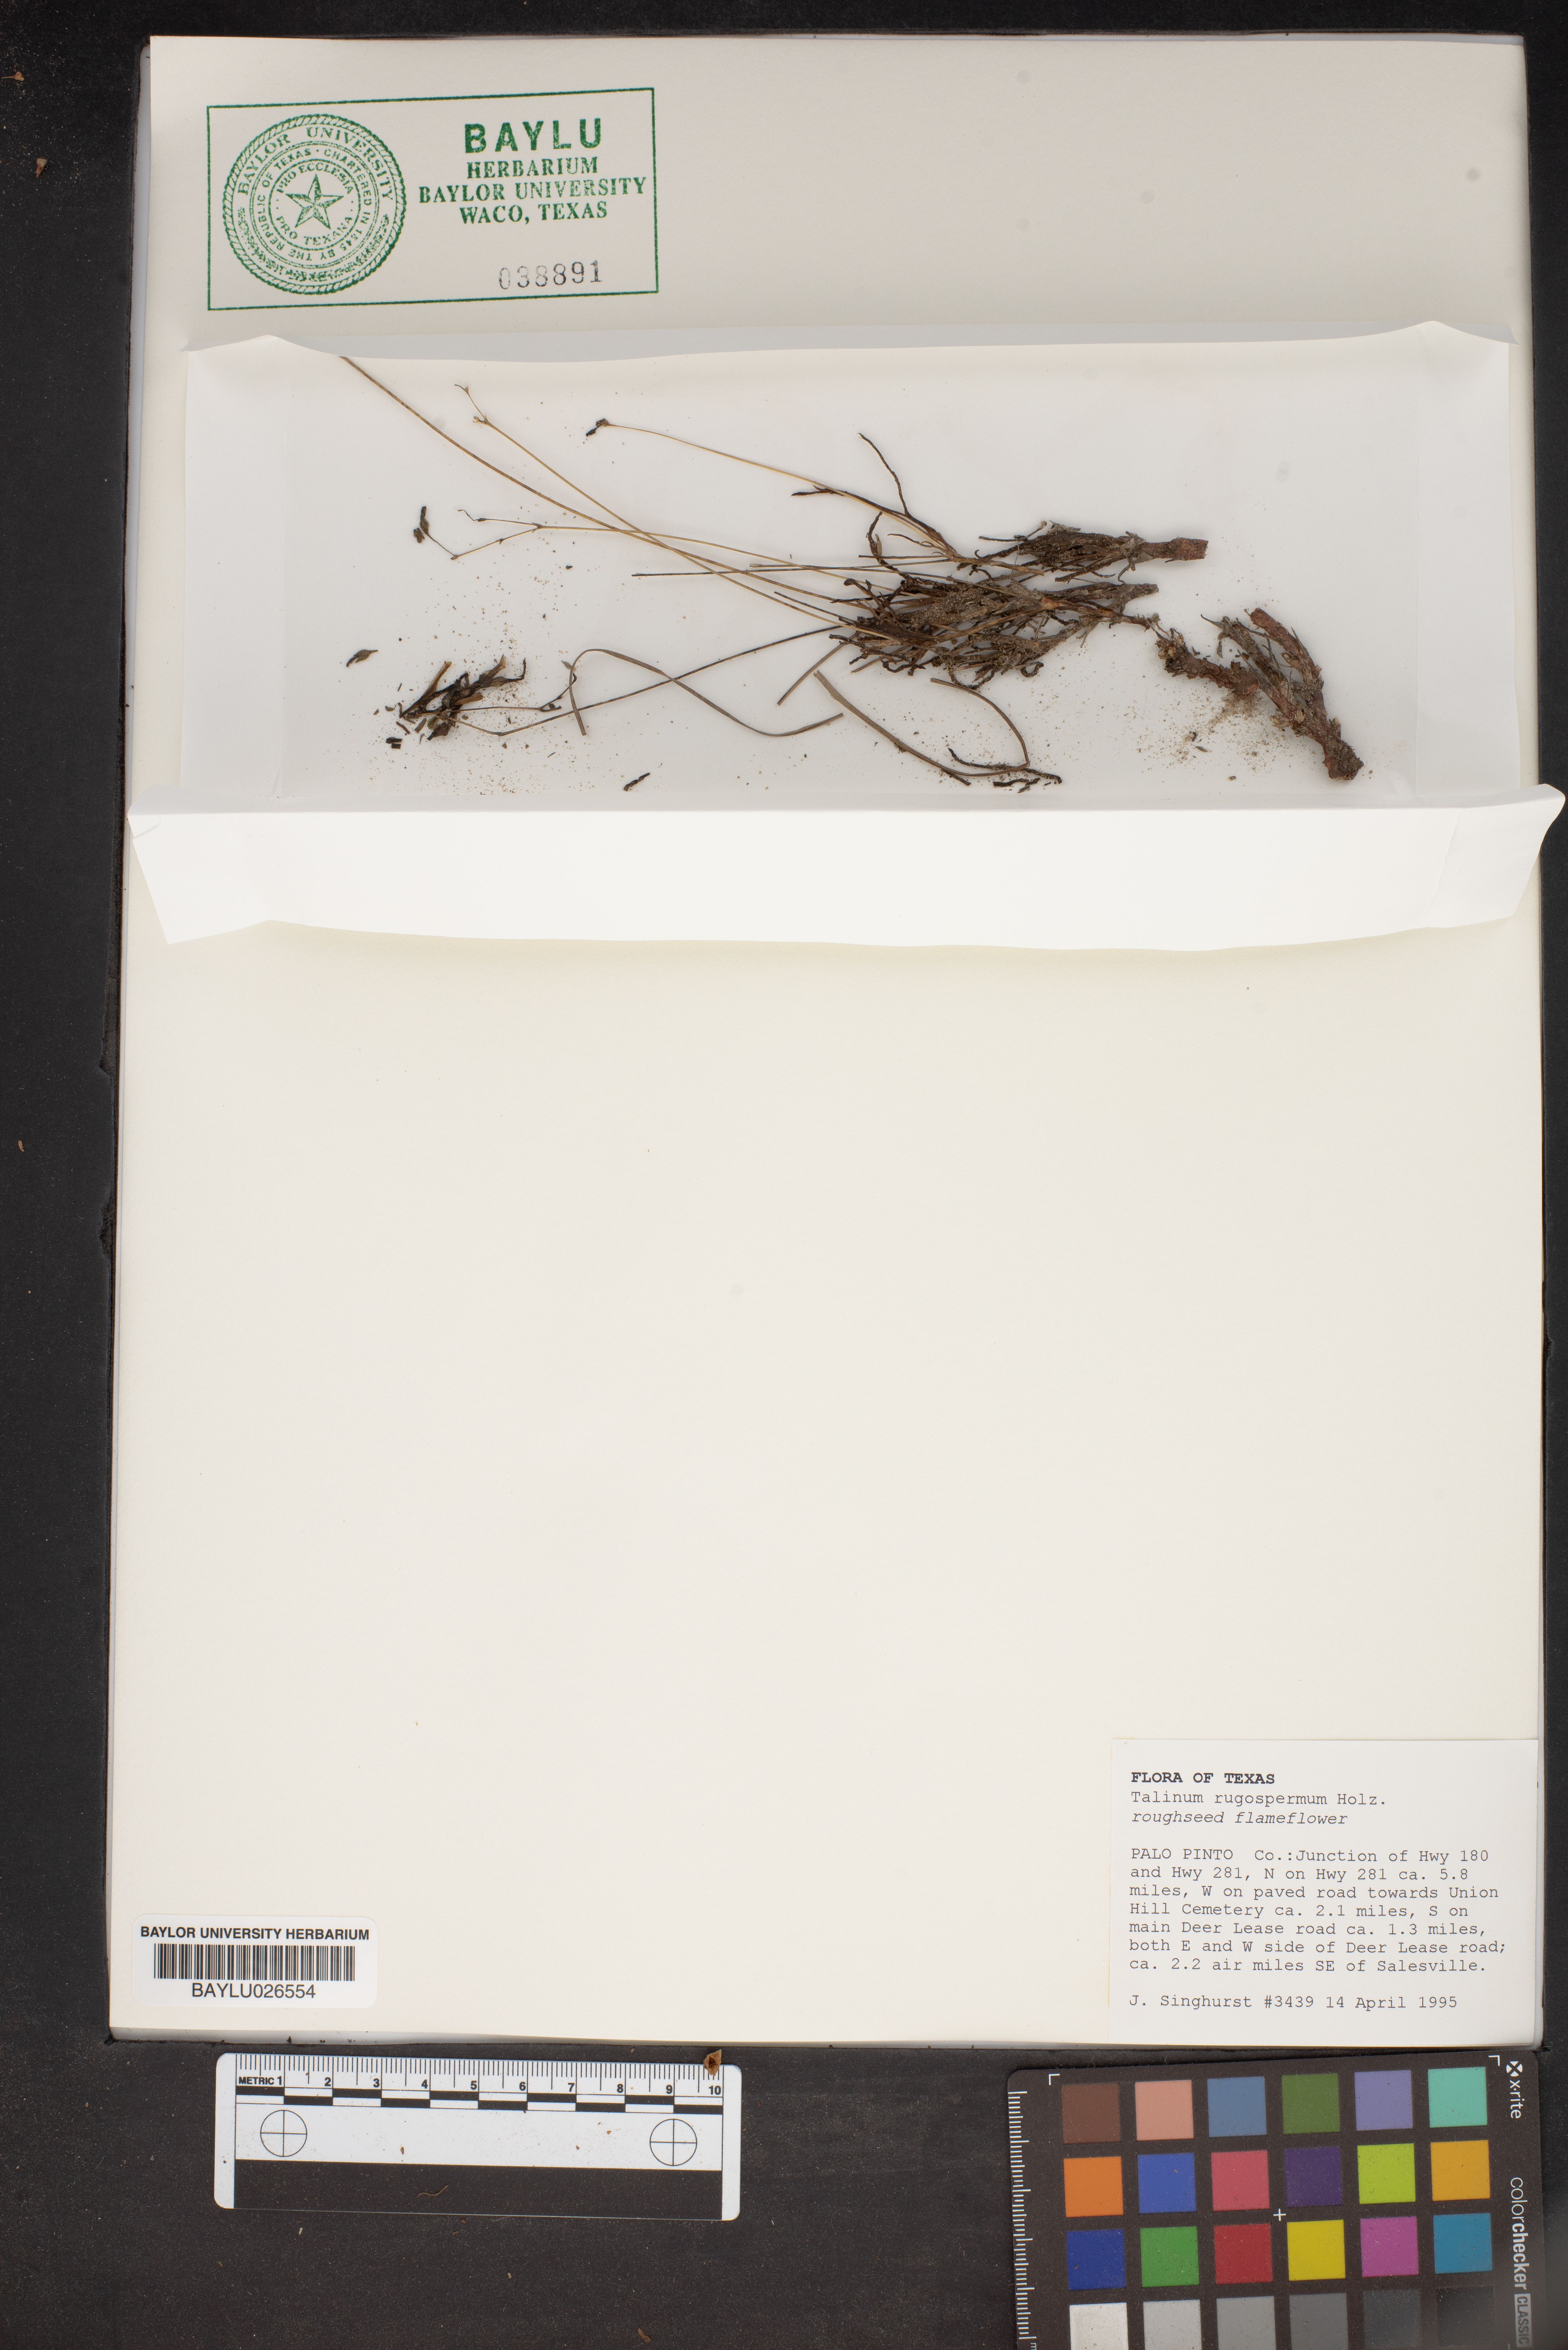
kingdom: Plantae
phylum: Tracheophyta
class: Magnoliopsida
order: Caryophyllales
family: Montiaceae
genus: Phemeranthus
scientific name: Phemeranthus rugospermus
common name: Prairie fameflower
